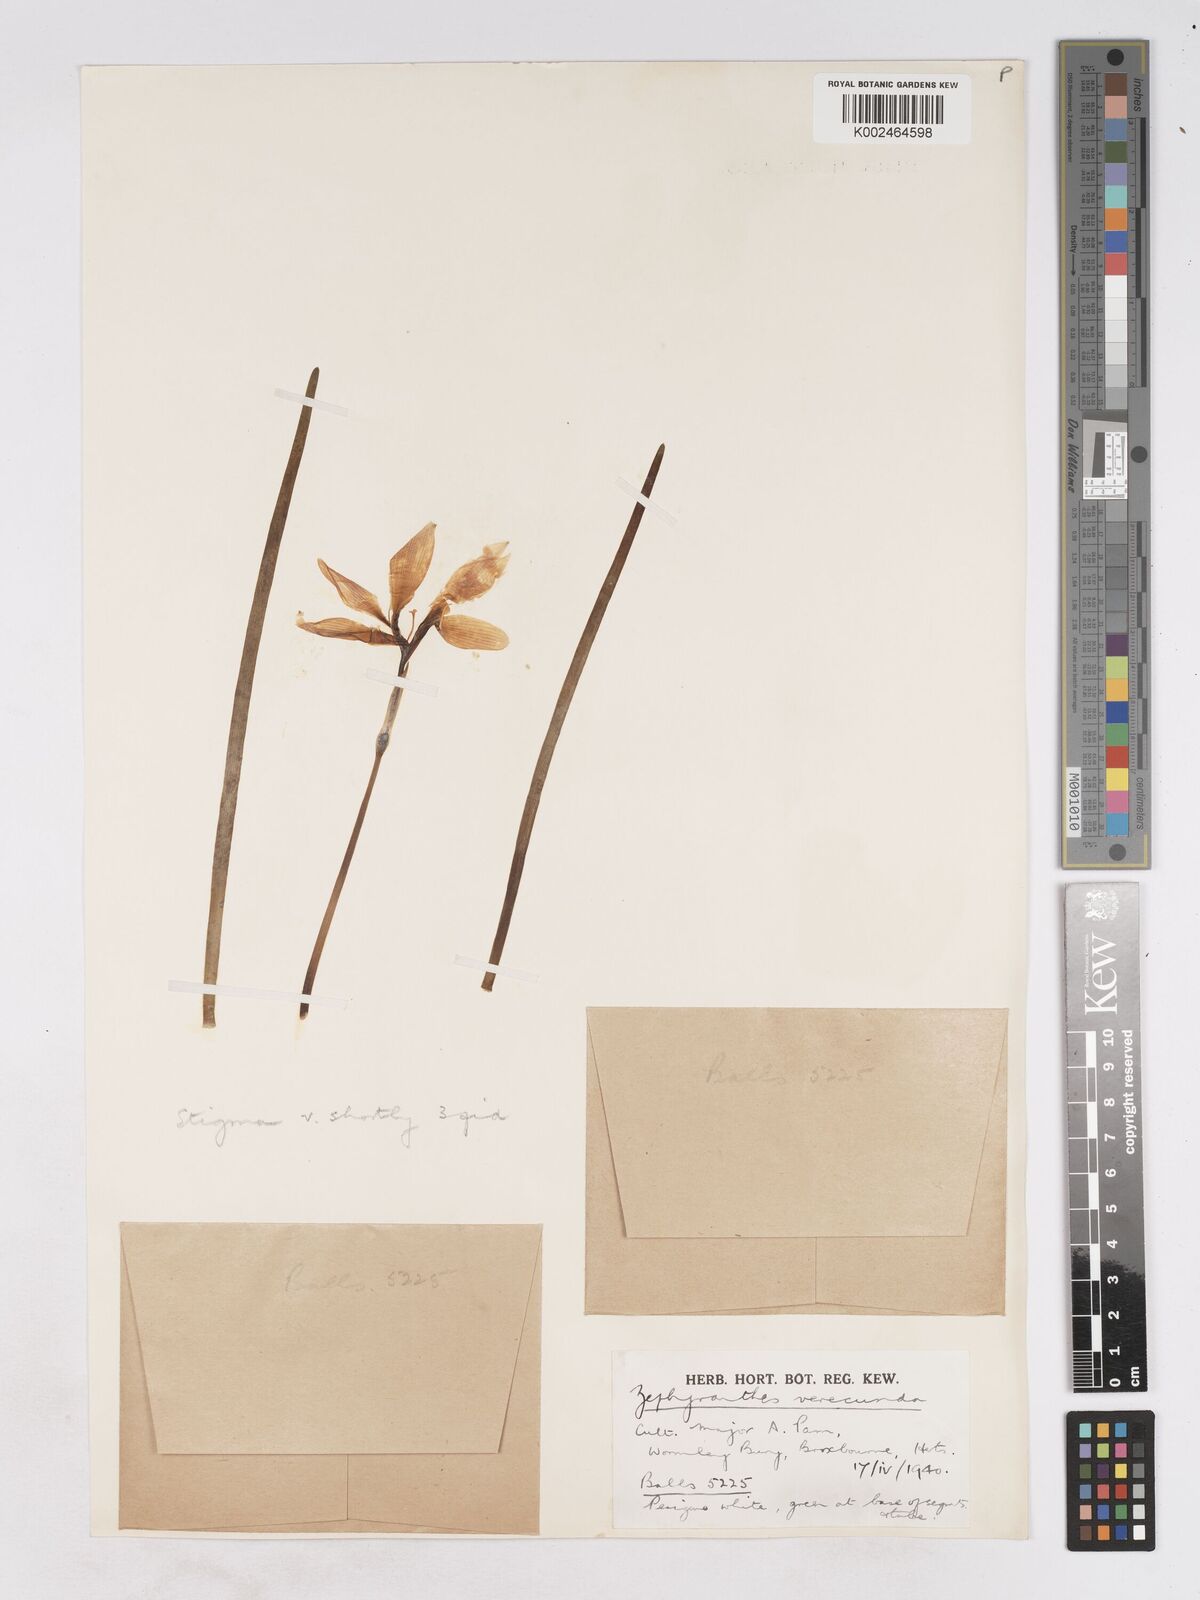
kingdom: Plantae
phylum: Tracheophyta
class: Liliopsida
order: Asparagales
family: Amaryllidaceae
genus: Zephyranthes
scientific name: Zephyranthes minuta
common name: Pink rain lily
